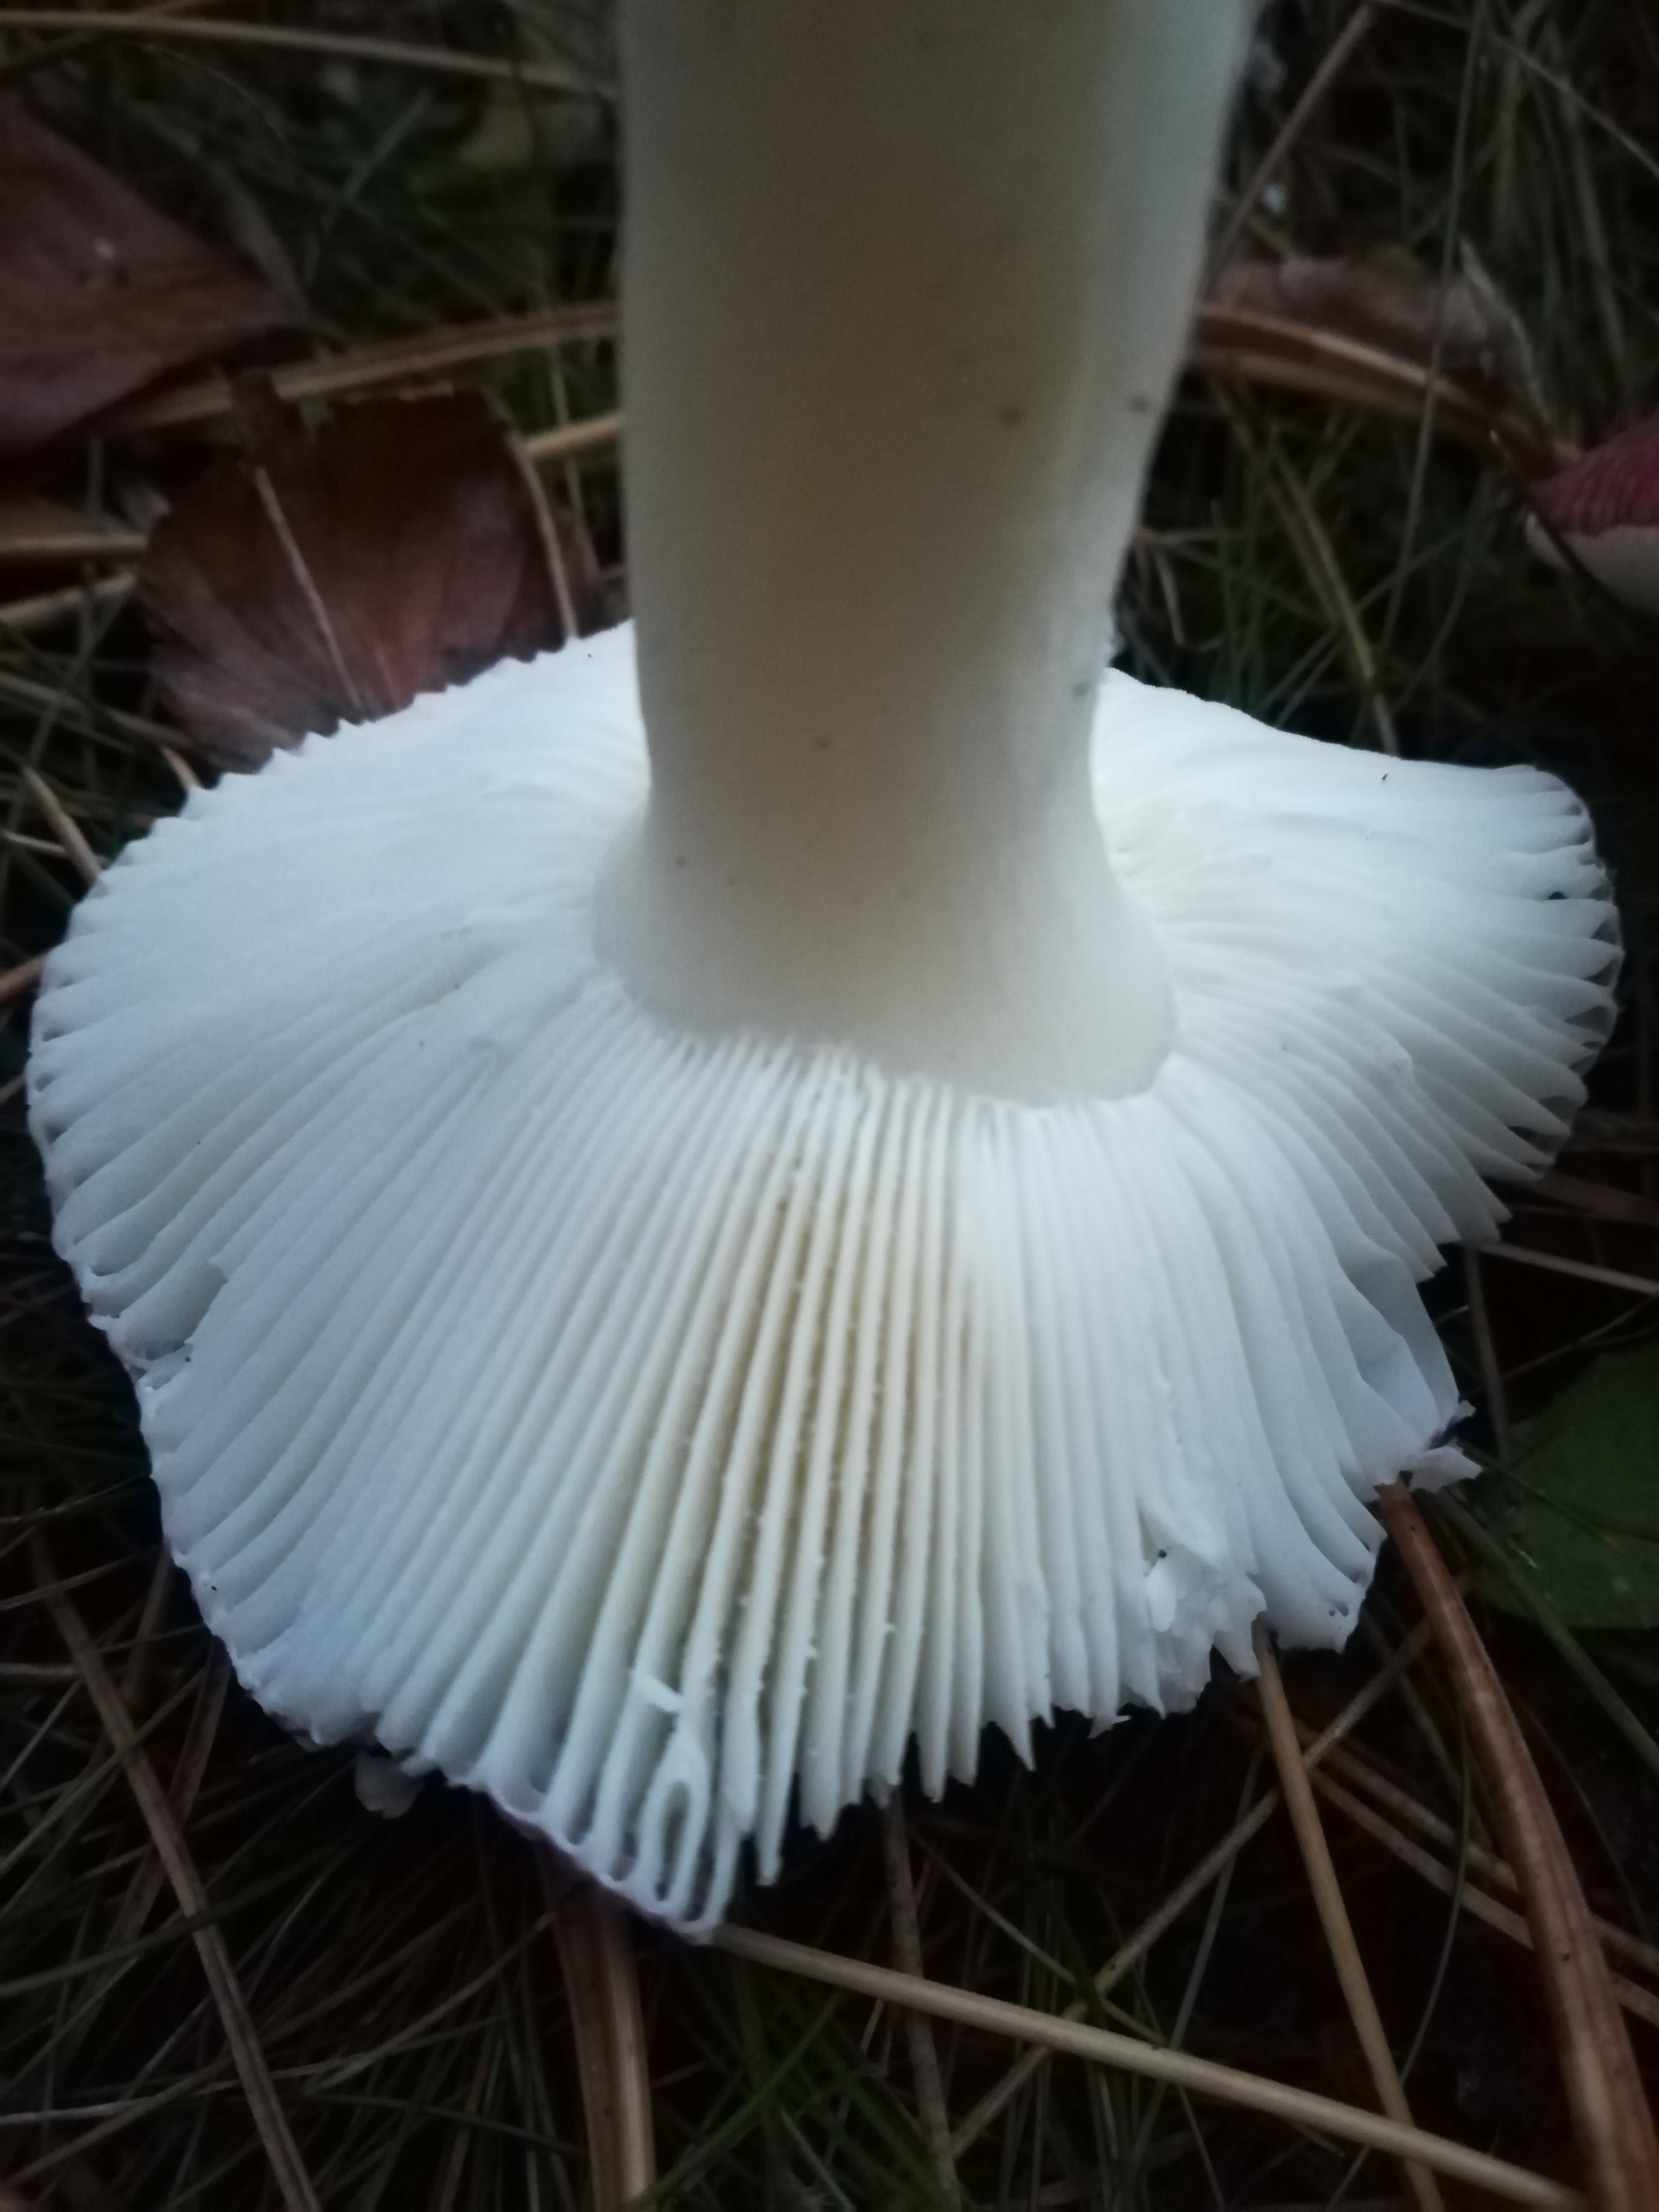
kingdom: Fungi
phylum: Basidiomycota
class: Agaricomycetes
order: Russulales
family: Russulaceae
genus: Russula
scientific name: Russula
